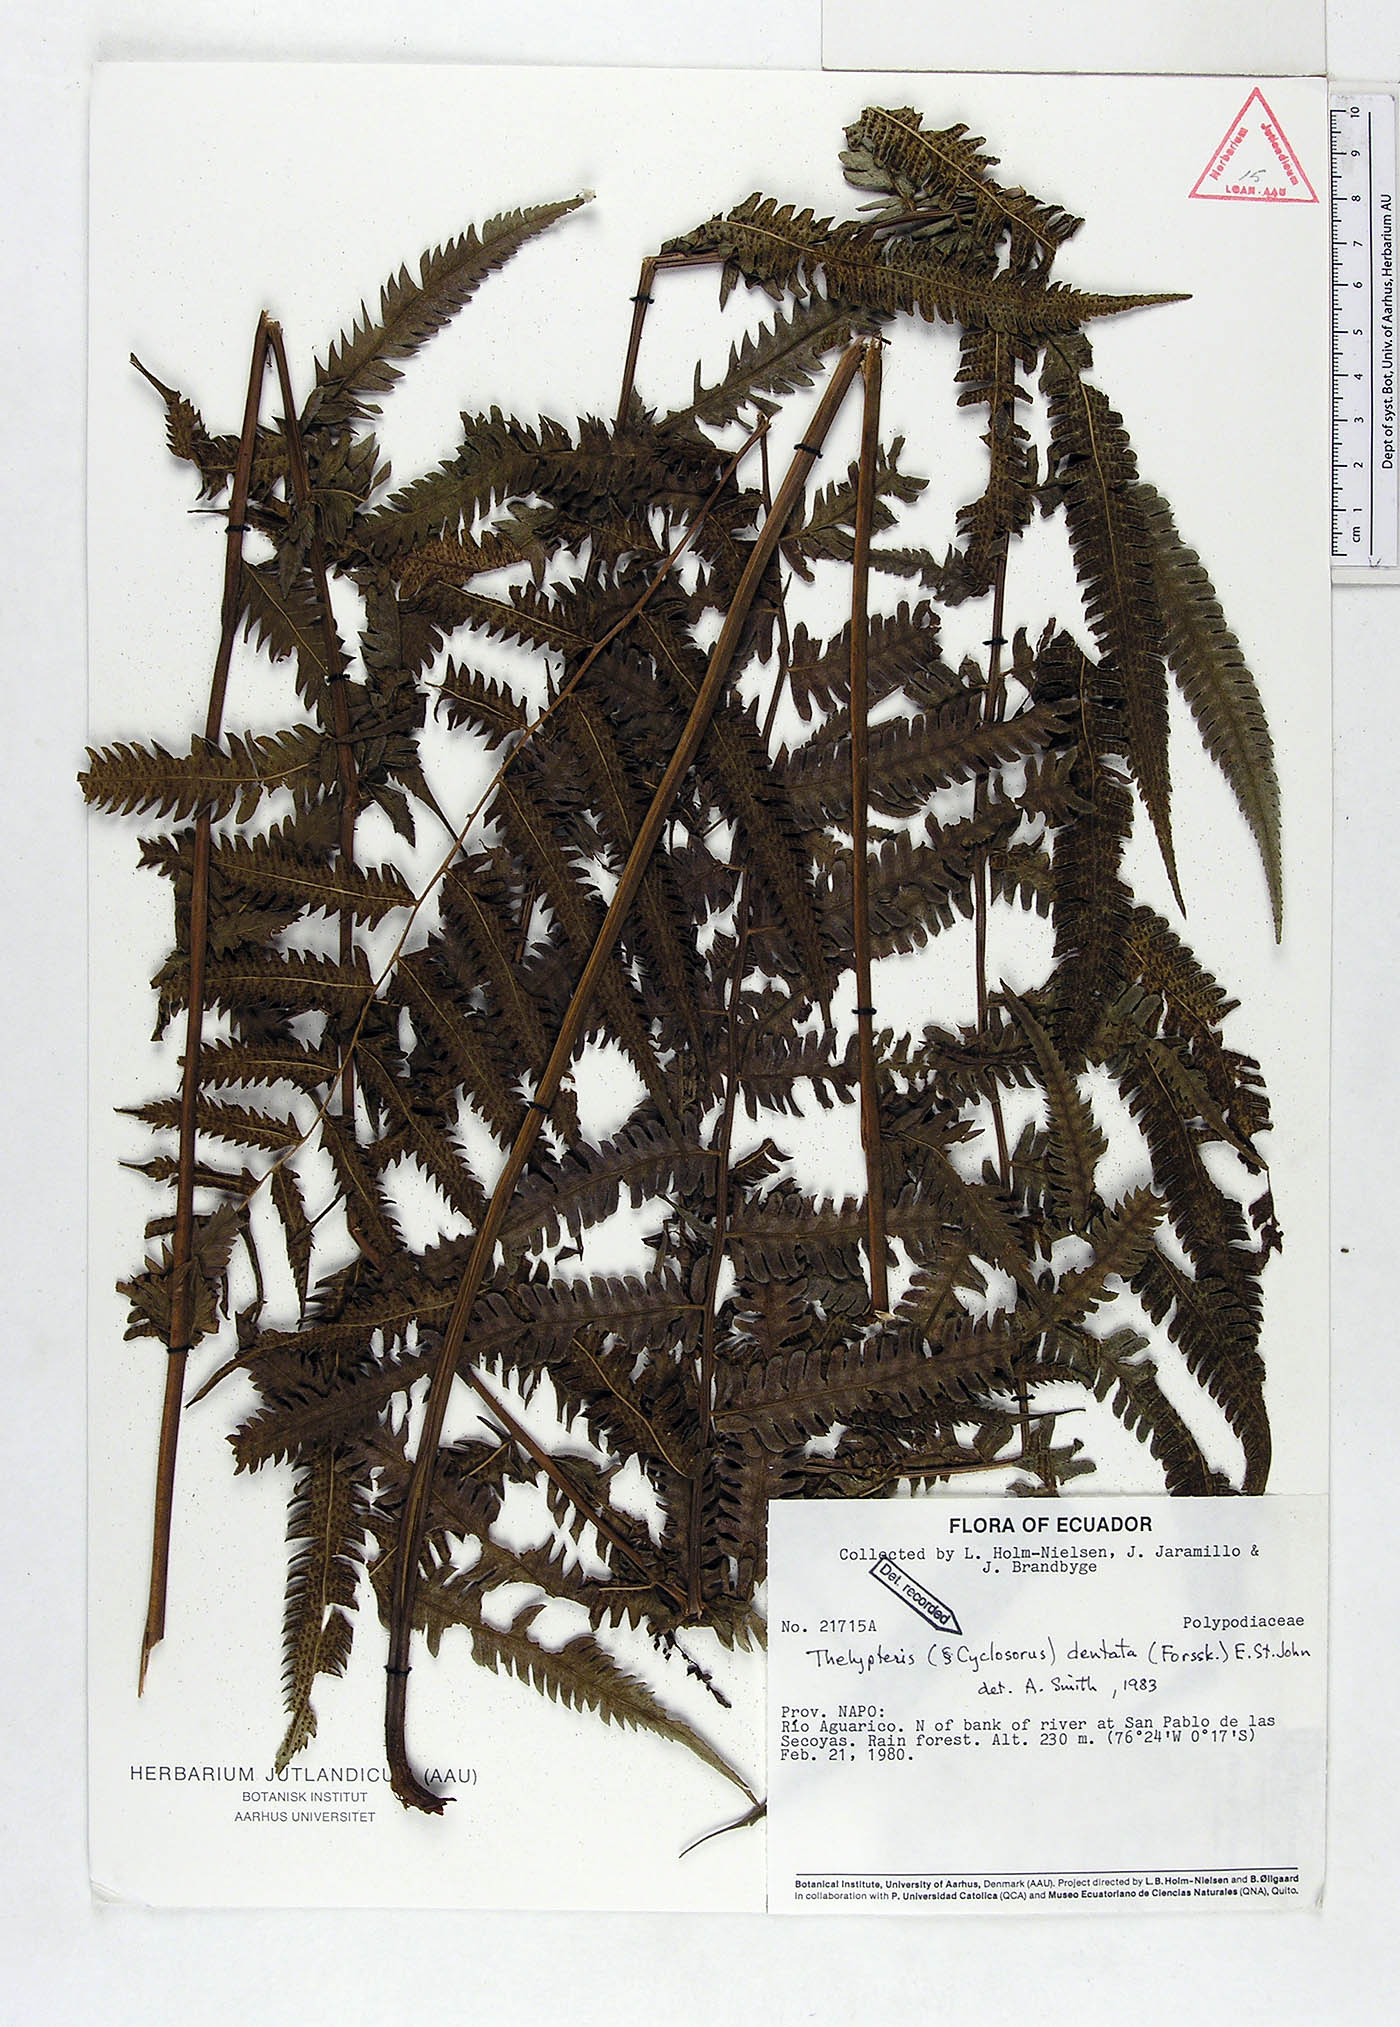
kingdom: Plantae
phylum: Tracheophyta
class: Polypodiopsida
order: Polypodiales
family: Thelypteridaceae
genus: Christella
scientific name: Christella dentata
